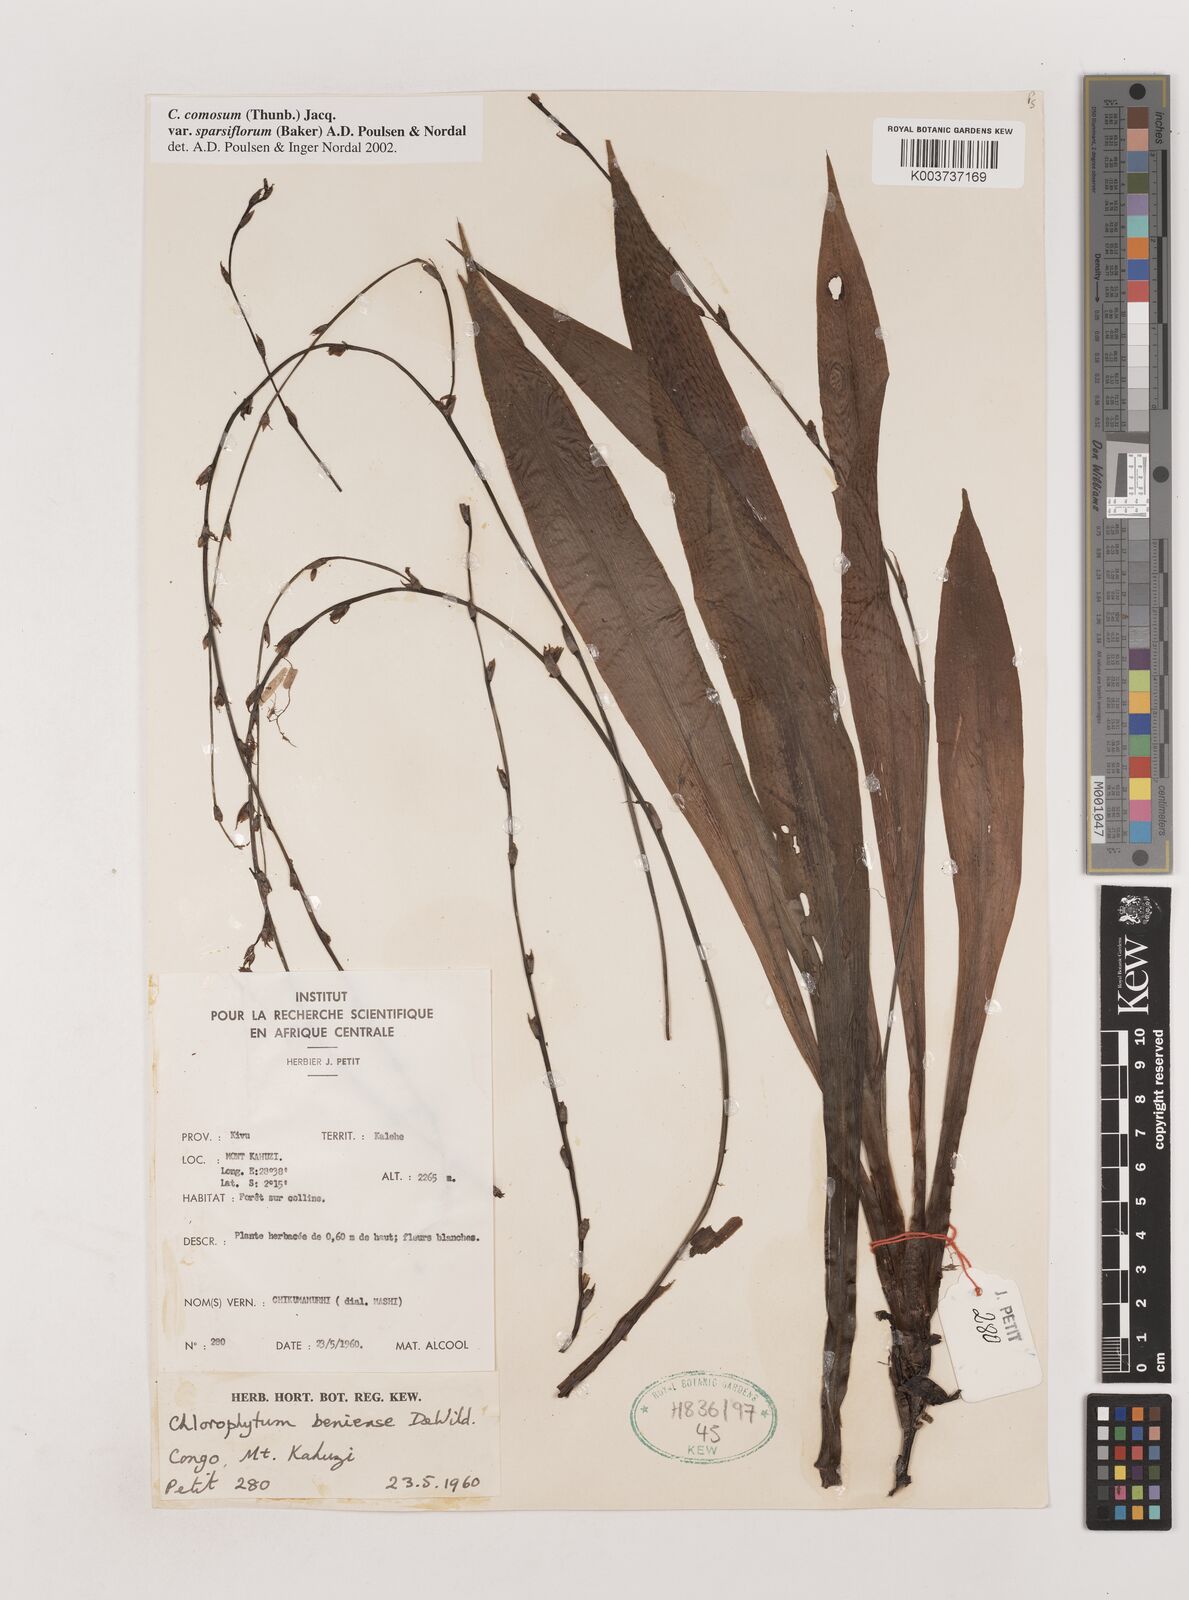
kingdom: Plantae
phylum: Tracheophyta
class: Liliopsida
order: Asparagales
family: Asparagaceae
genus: Chlorophytum
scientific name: Chlorophytum sparsiflorum
